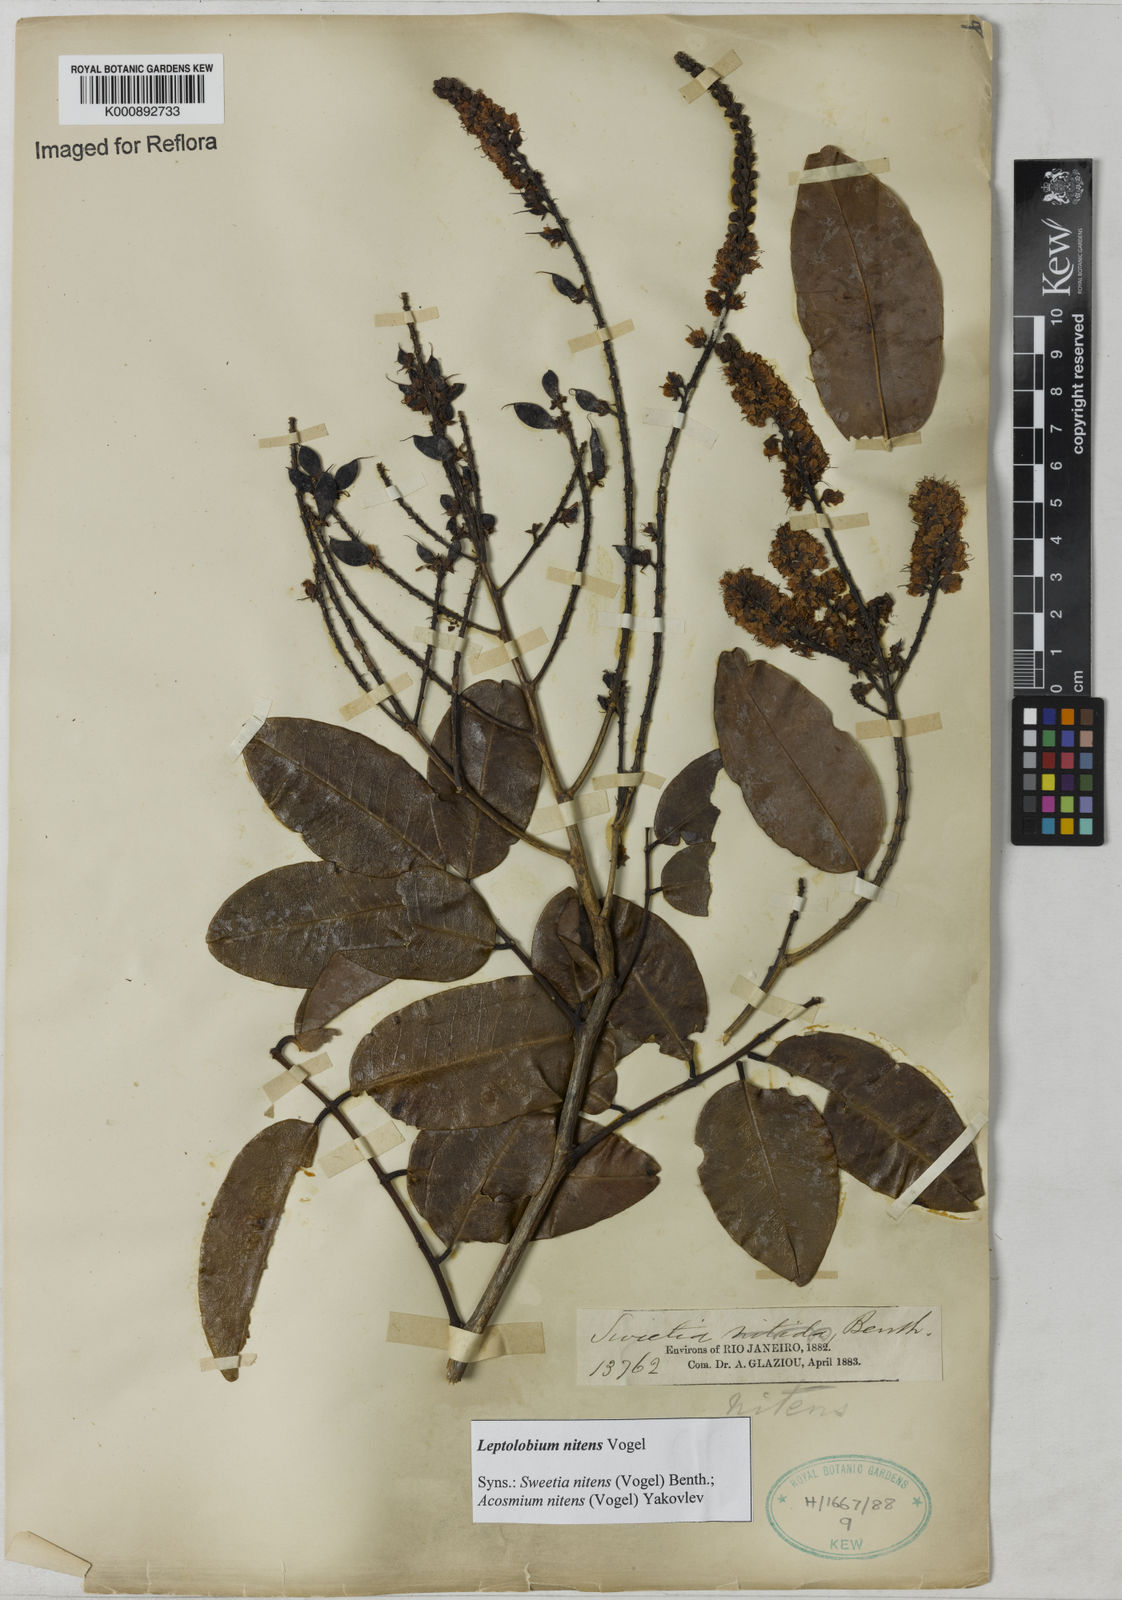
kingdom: Plantae
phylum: Tracheophyta
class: Magnoliopsida
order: Fabales
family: Fabaceae
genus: Leptolobium
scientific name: Leptolobium nitens
